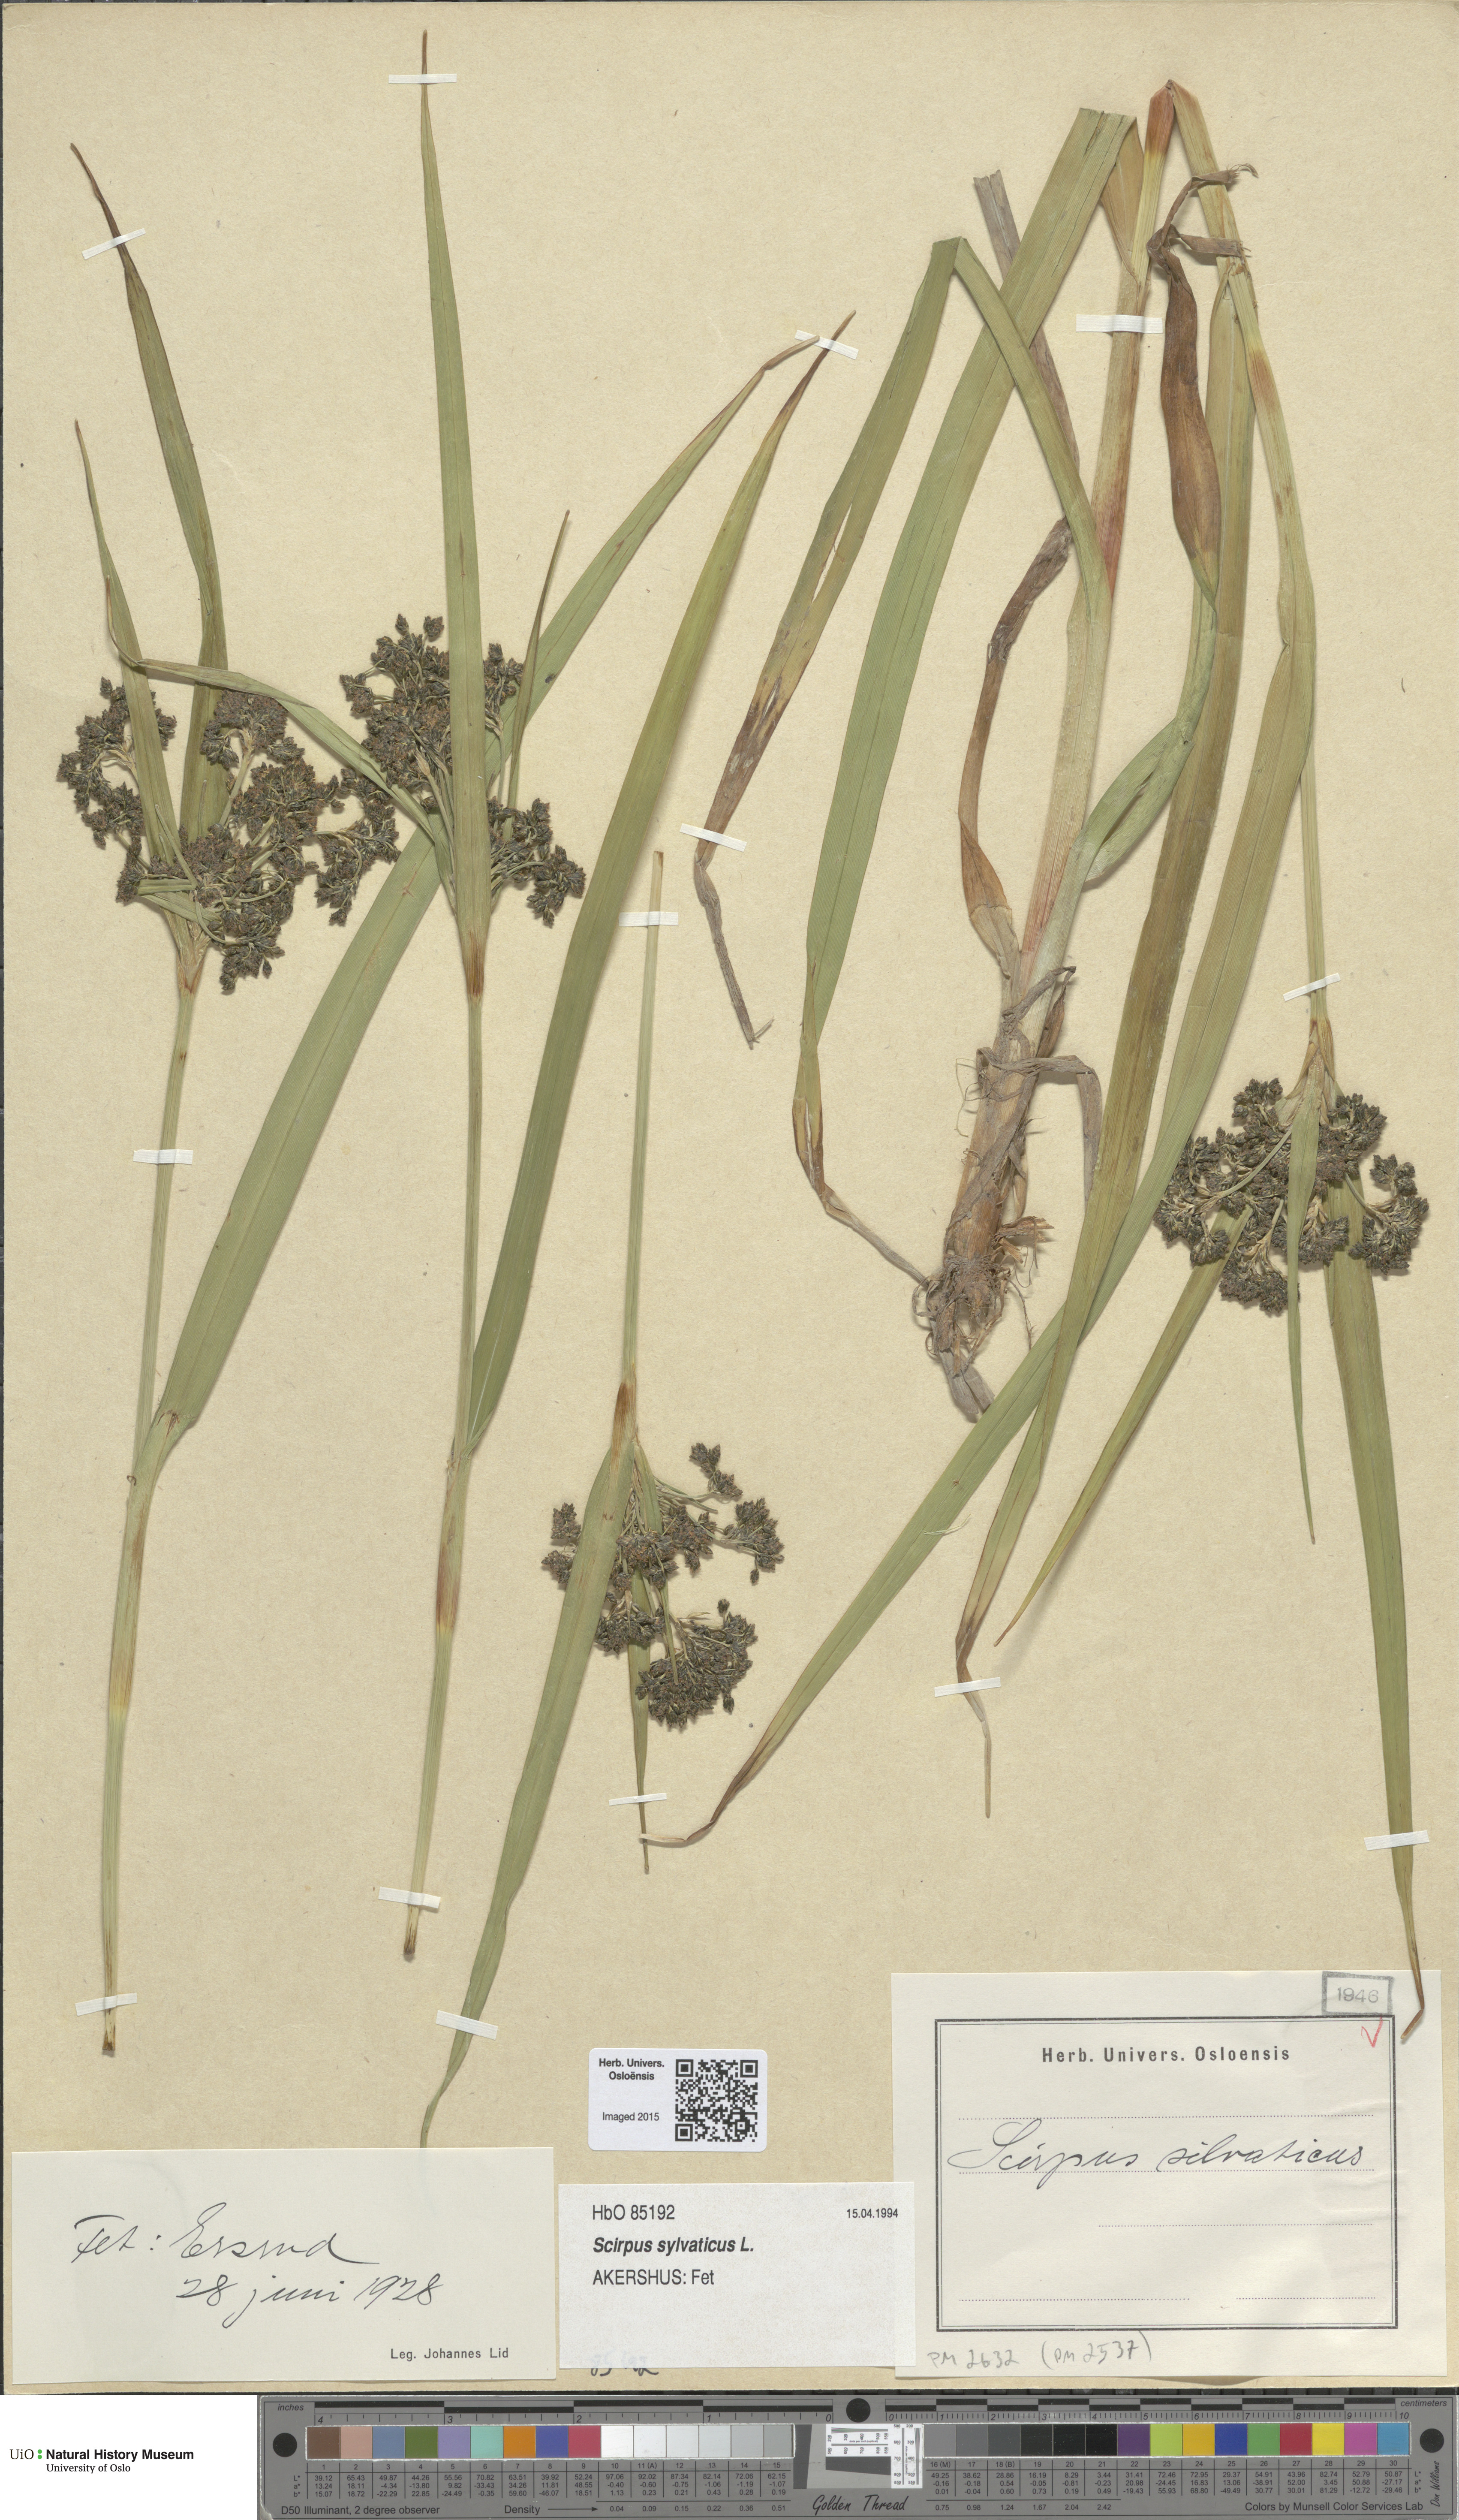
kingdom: Plantae
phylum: Tracheophyta
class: Liliopsida
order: Poales
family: Cyperaceae
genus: Scirpus
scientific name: Scirpus sylvaticus
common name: Wood club-rush
